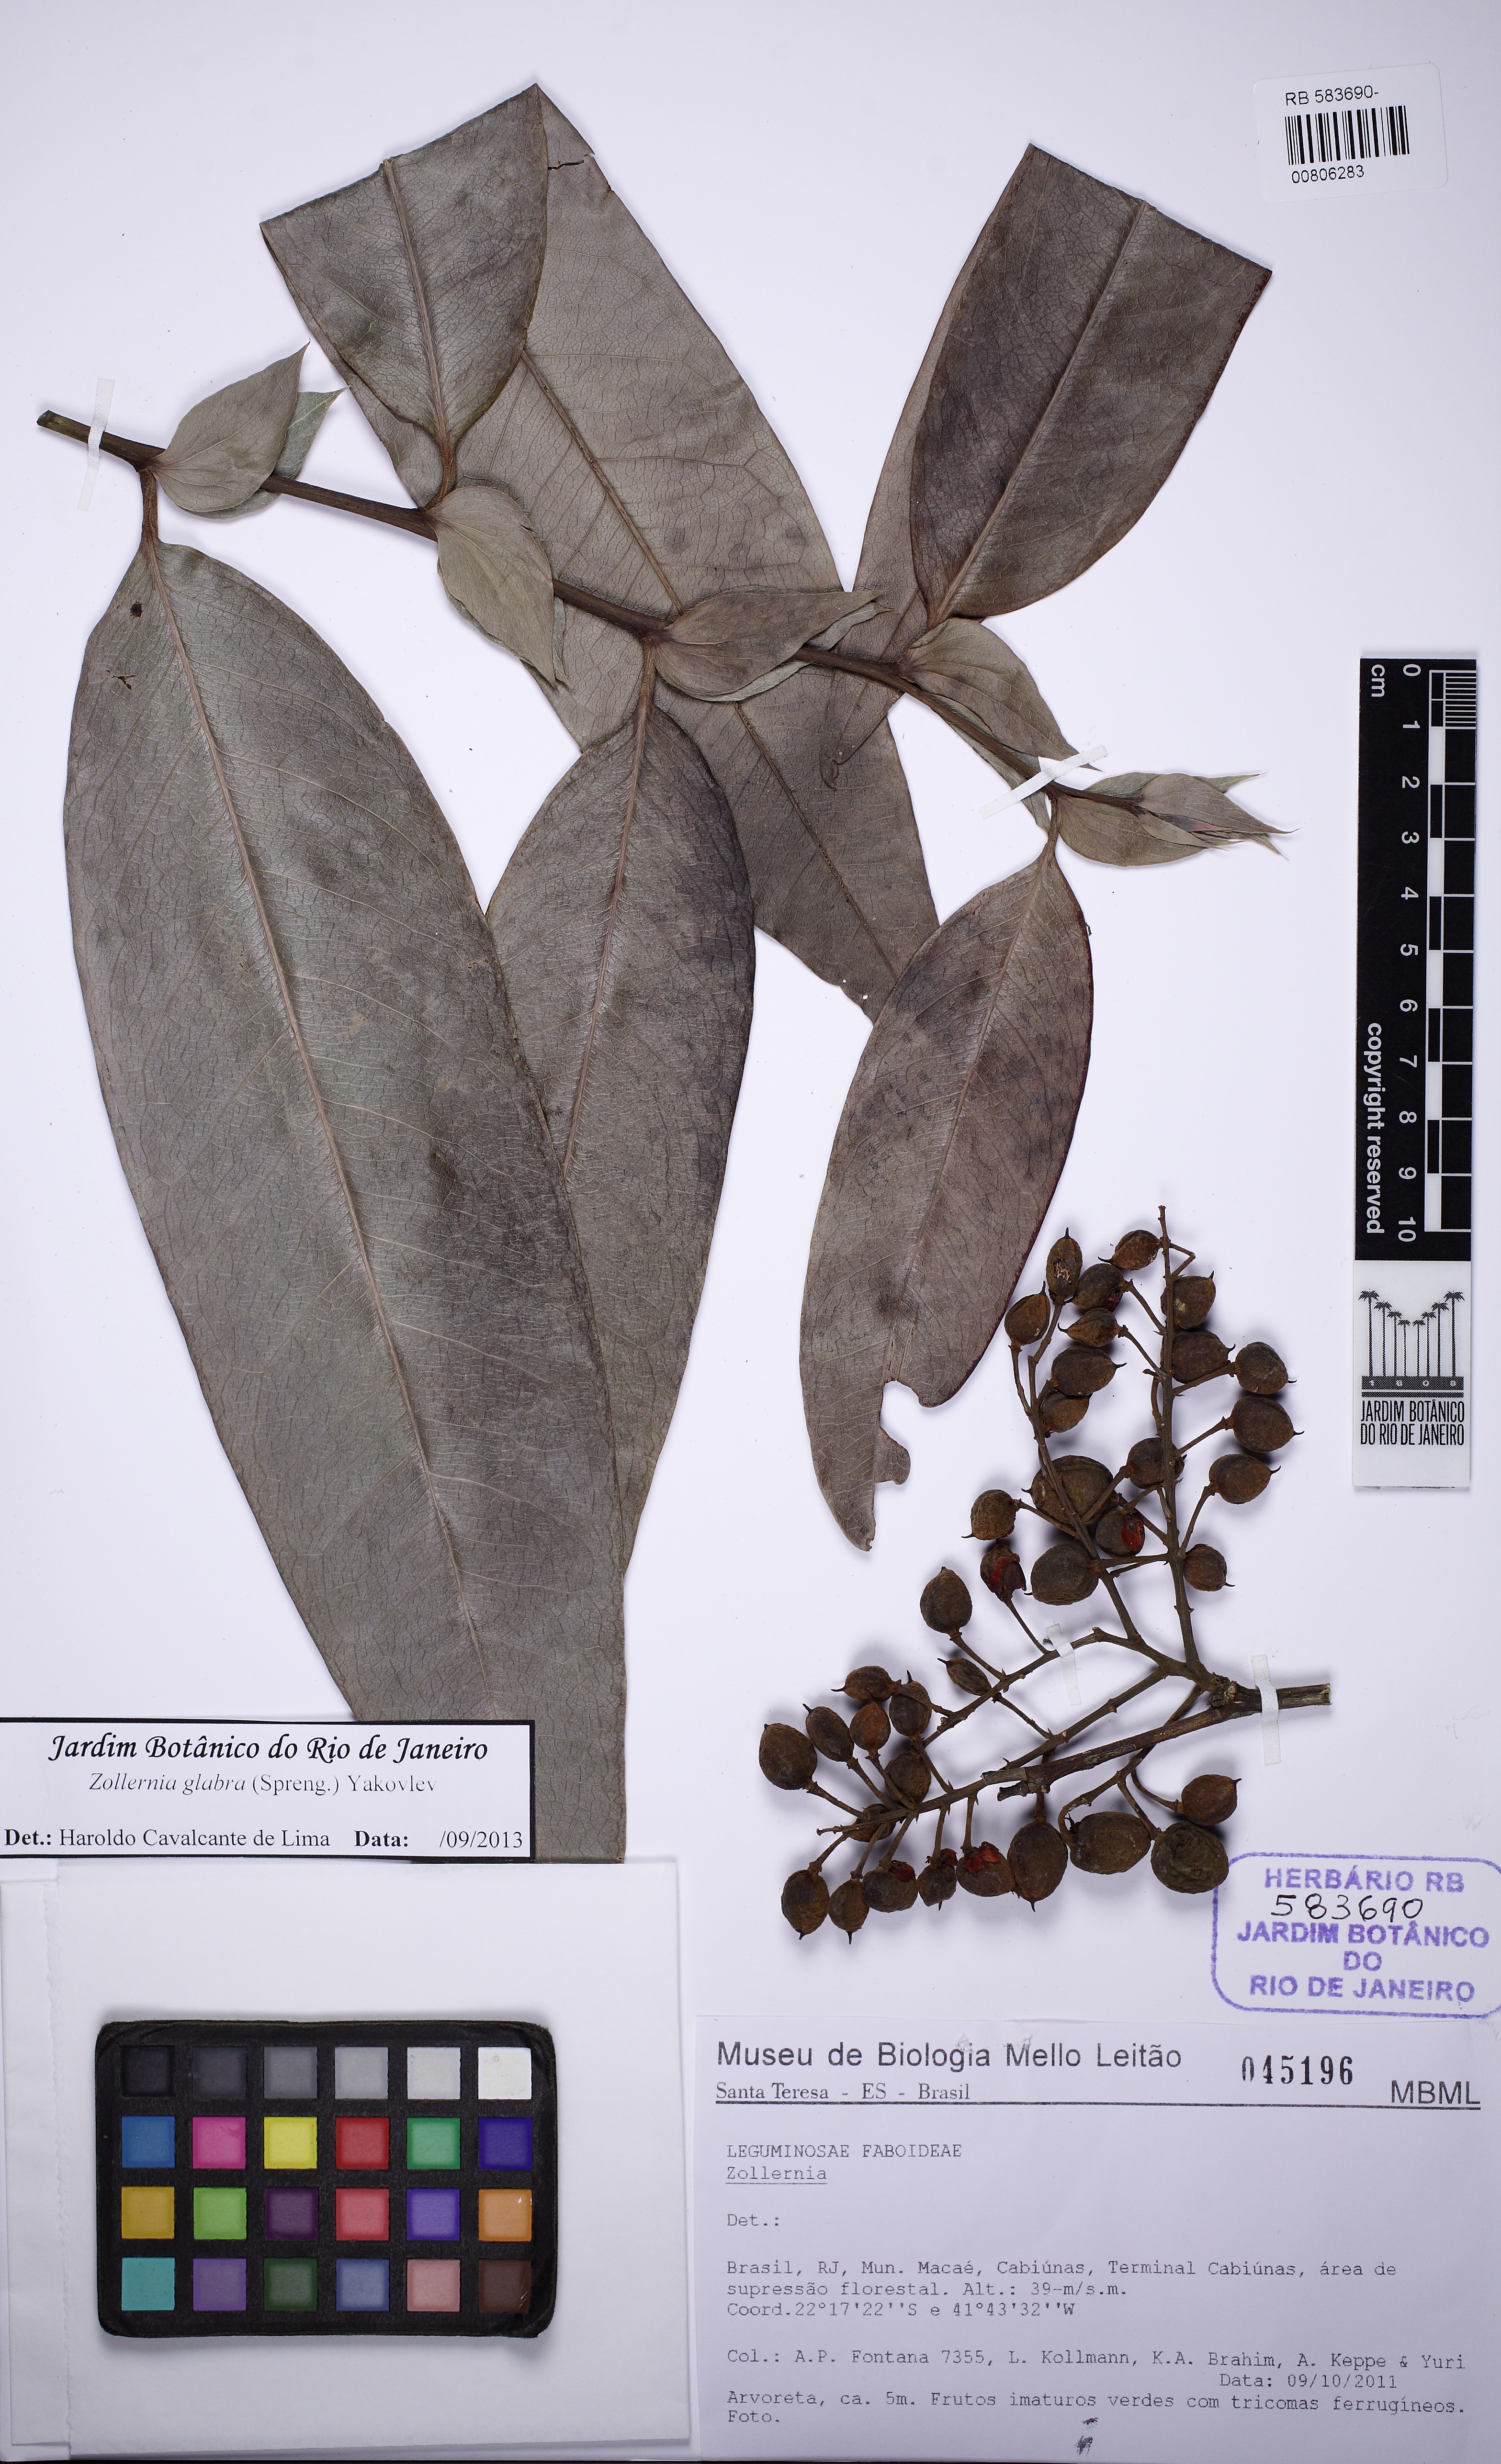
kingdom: Plantae
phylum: Tracheophyta
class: Magnoliopsida
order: Fabales
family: Fabaceae
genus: Zollernia
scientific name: Zollernia glabra
